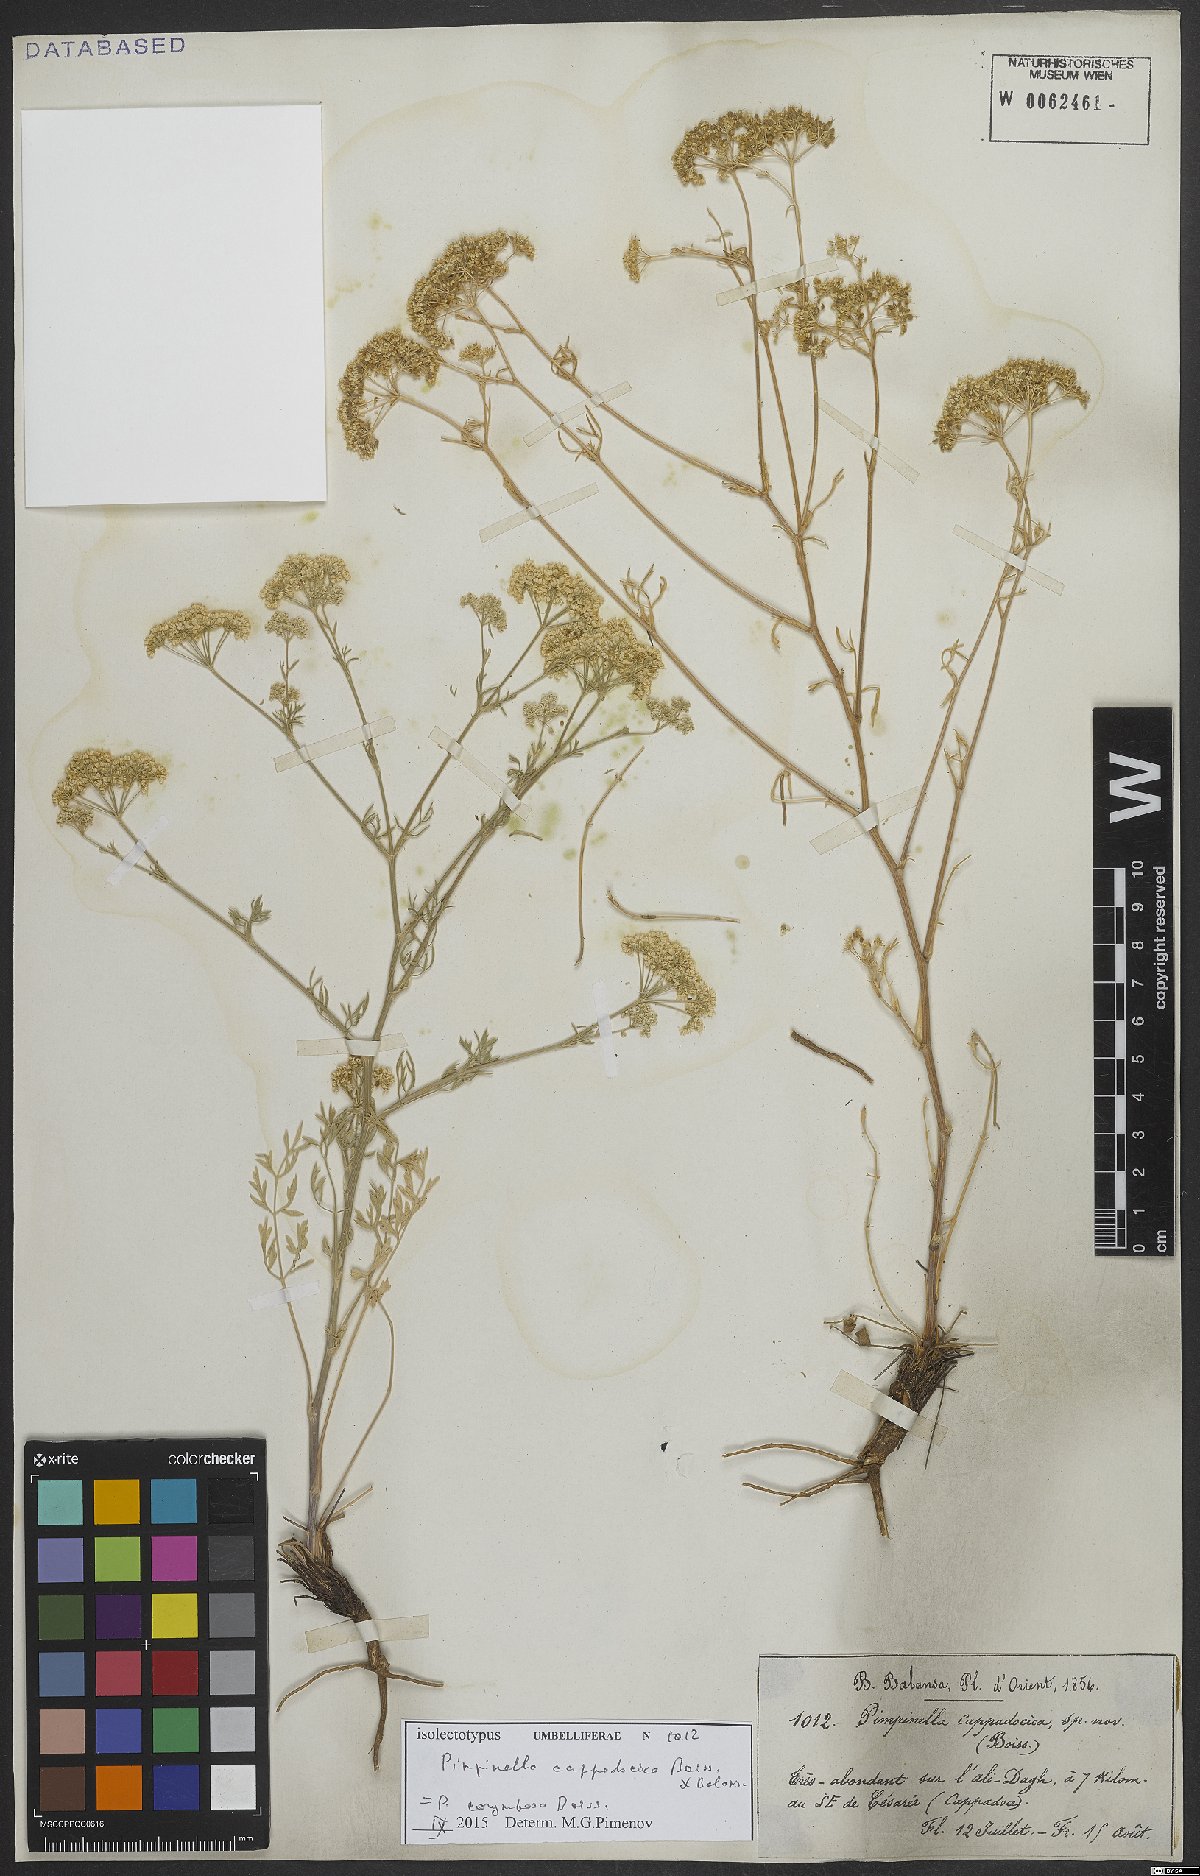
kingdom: Plantae
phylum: Tracheophyta
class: Magnoliopsida
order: Apiales
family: Apiaceae
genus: Pimpinella
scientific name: Pimpinella corymbosa
